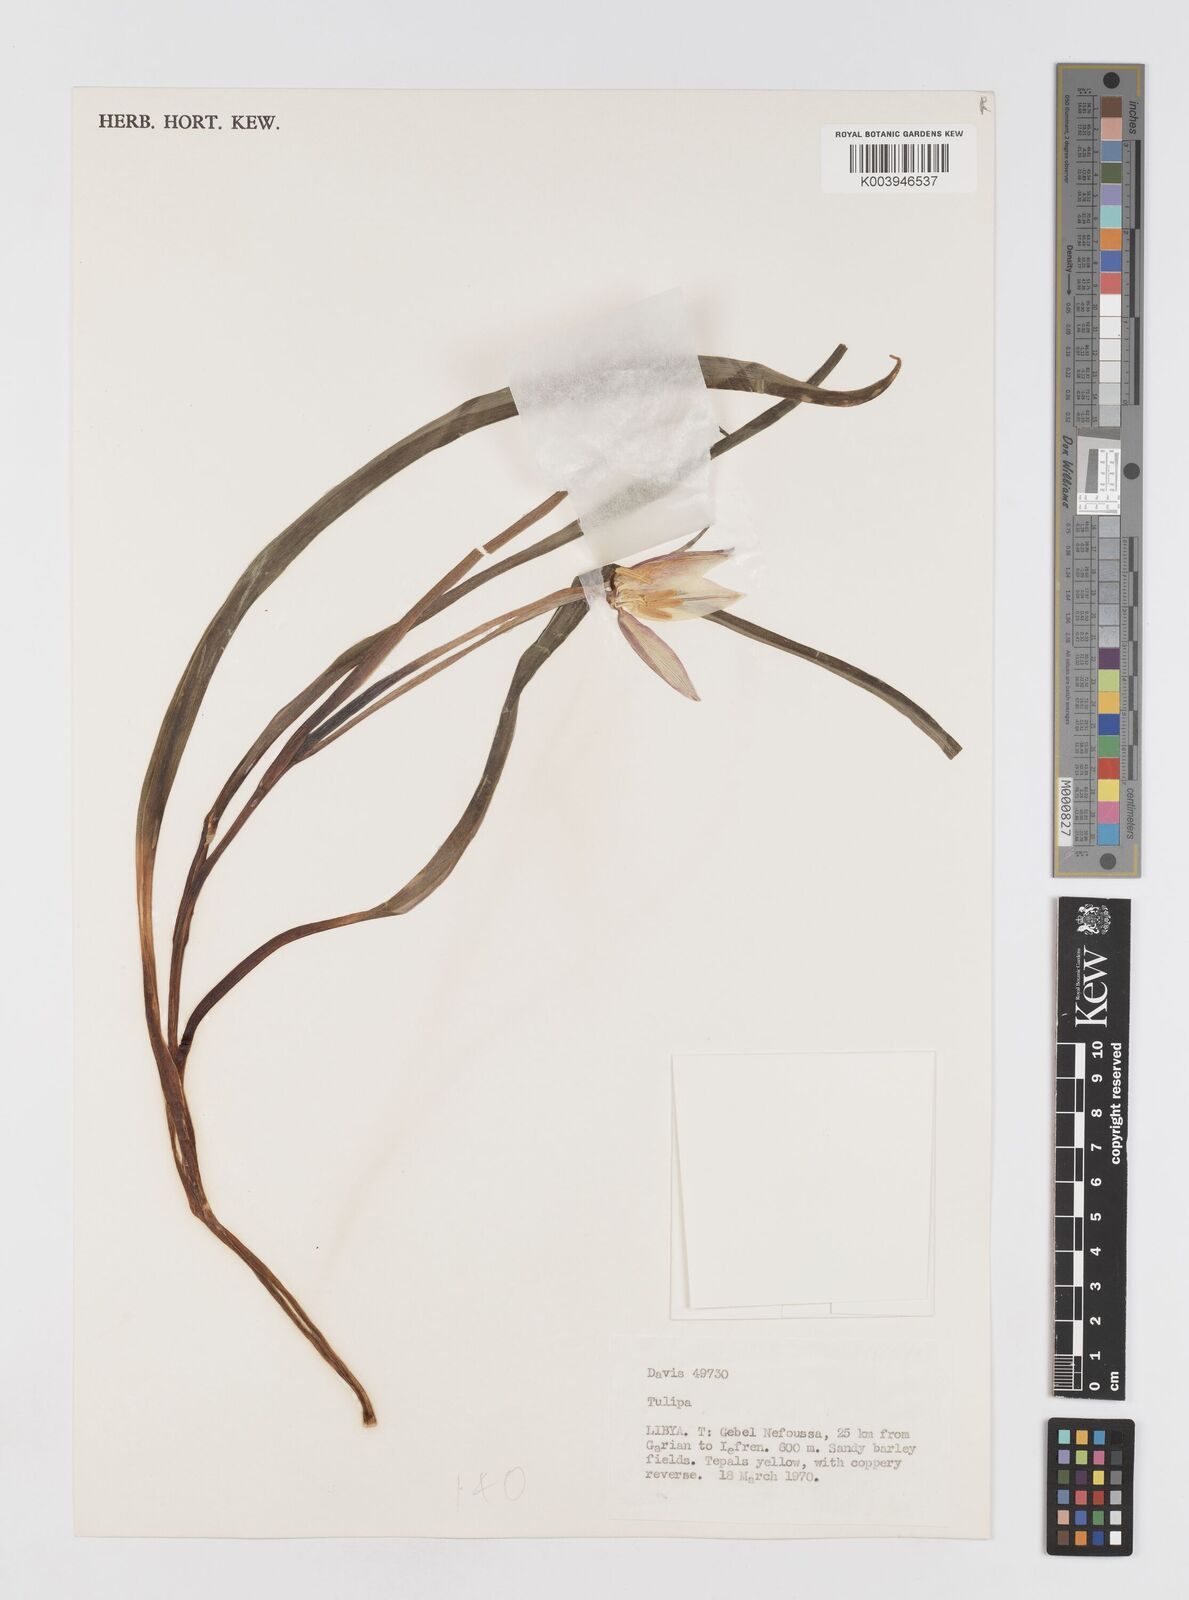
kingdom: Plantae
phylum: Tracheophyta
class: Liliopsida
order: Liliales
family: Liliaceae
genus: Tulipa
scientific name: Tulipa sylvestris
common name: Wild tulip
